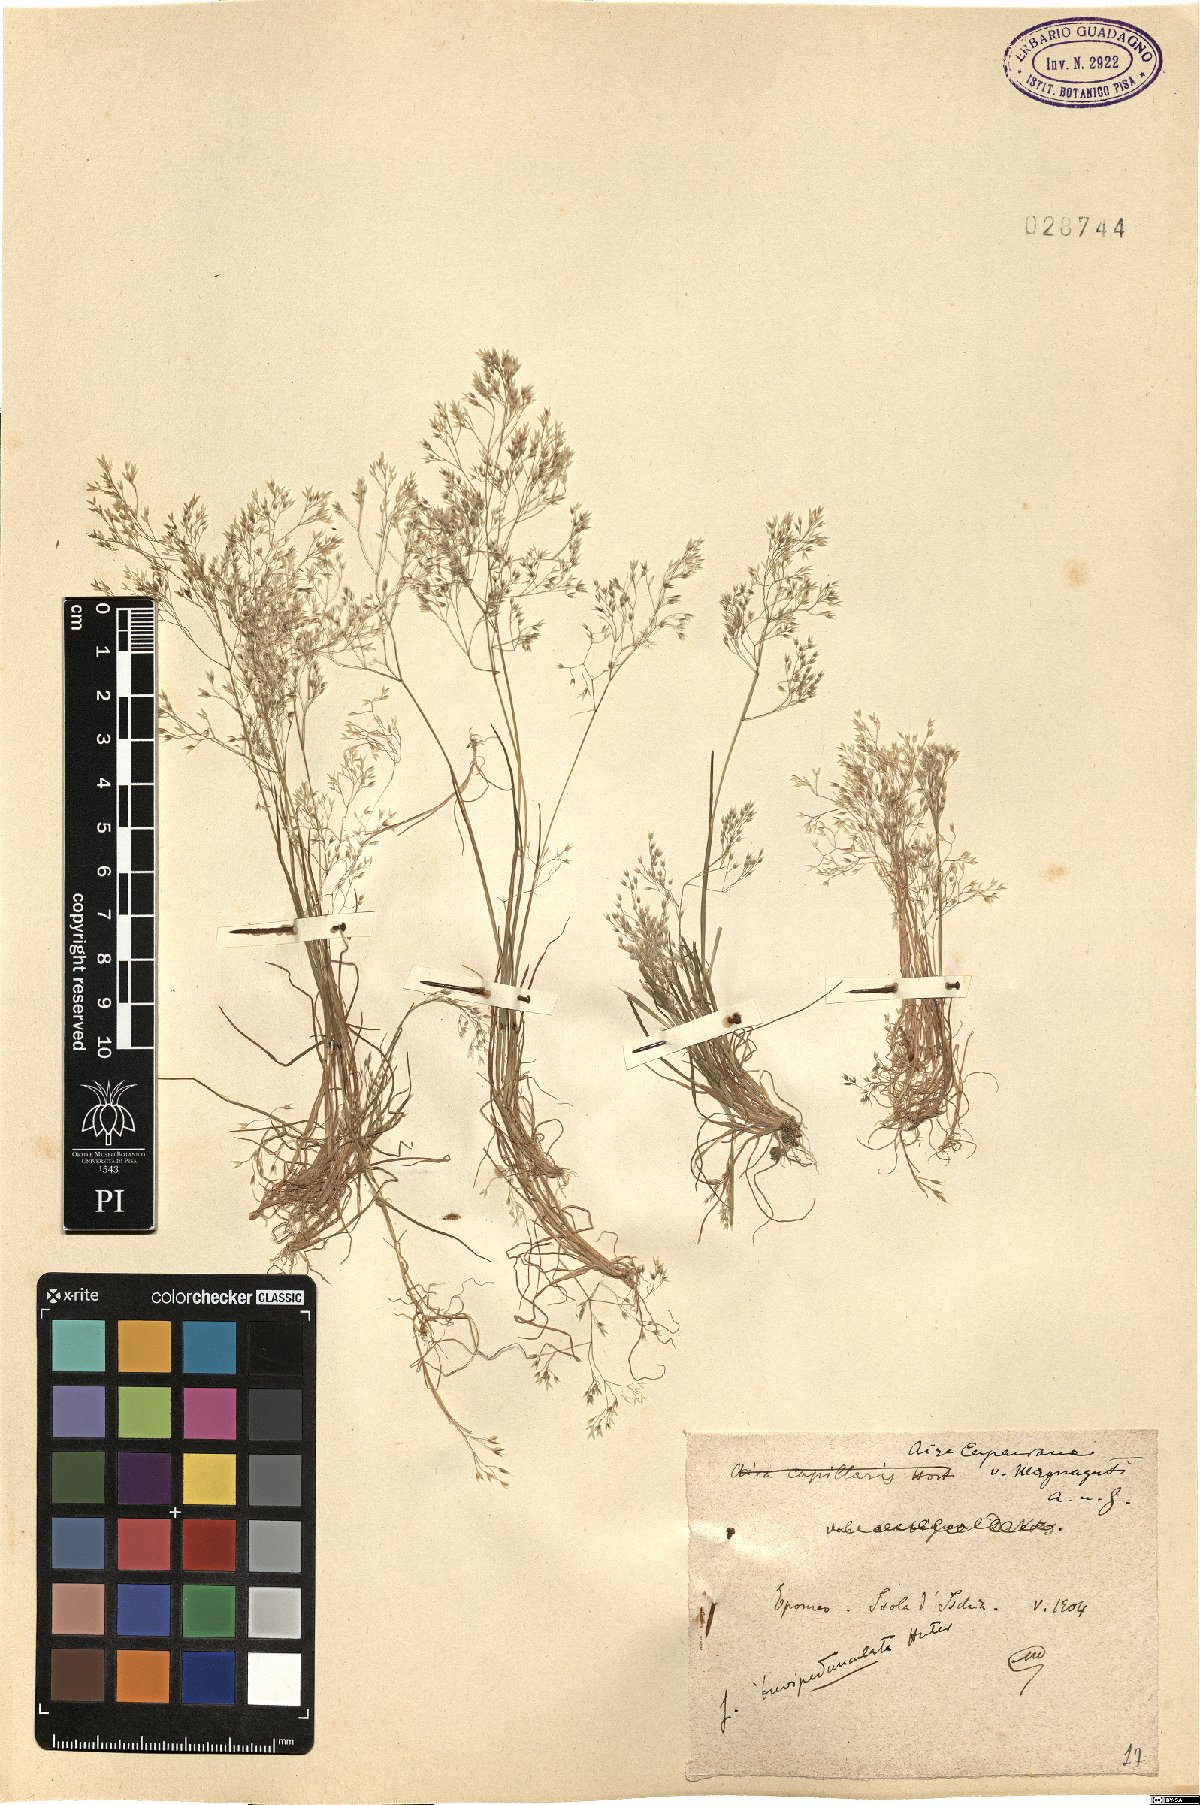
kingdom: Plantae
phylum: Tracheophyta
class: Liliopsida
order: Poales
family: Poaceae
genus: Aira
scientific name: Aira cupaniana
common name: Silver hairgrass
